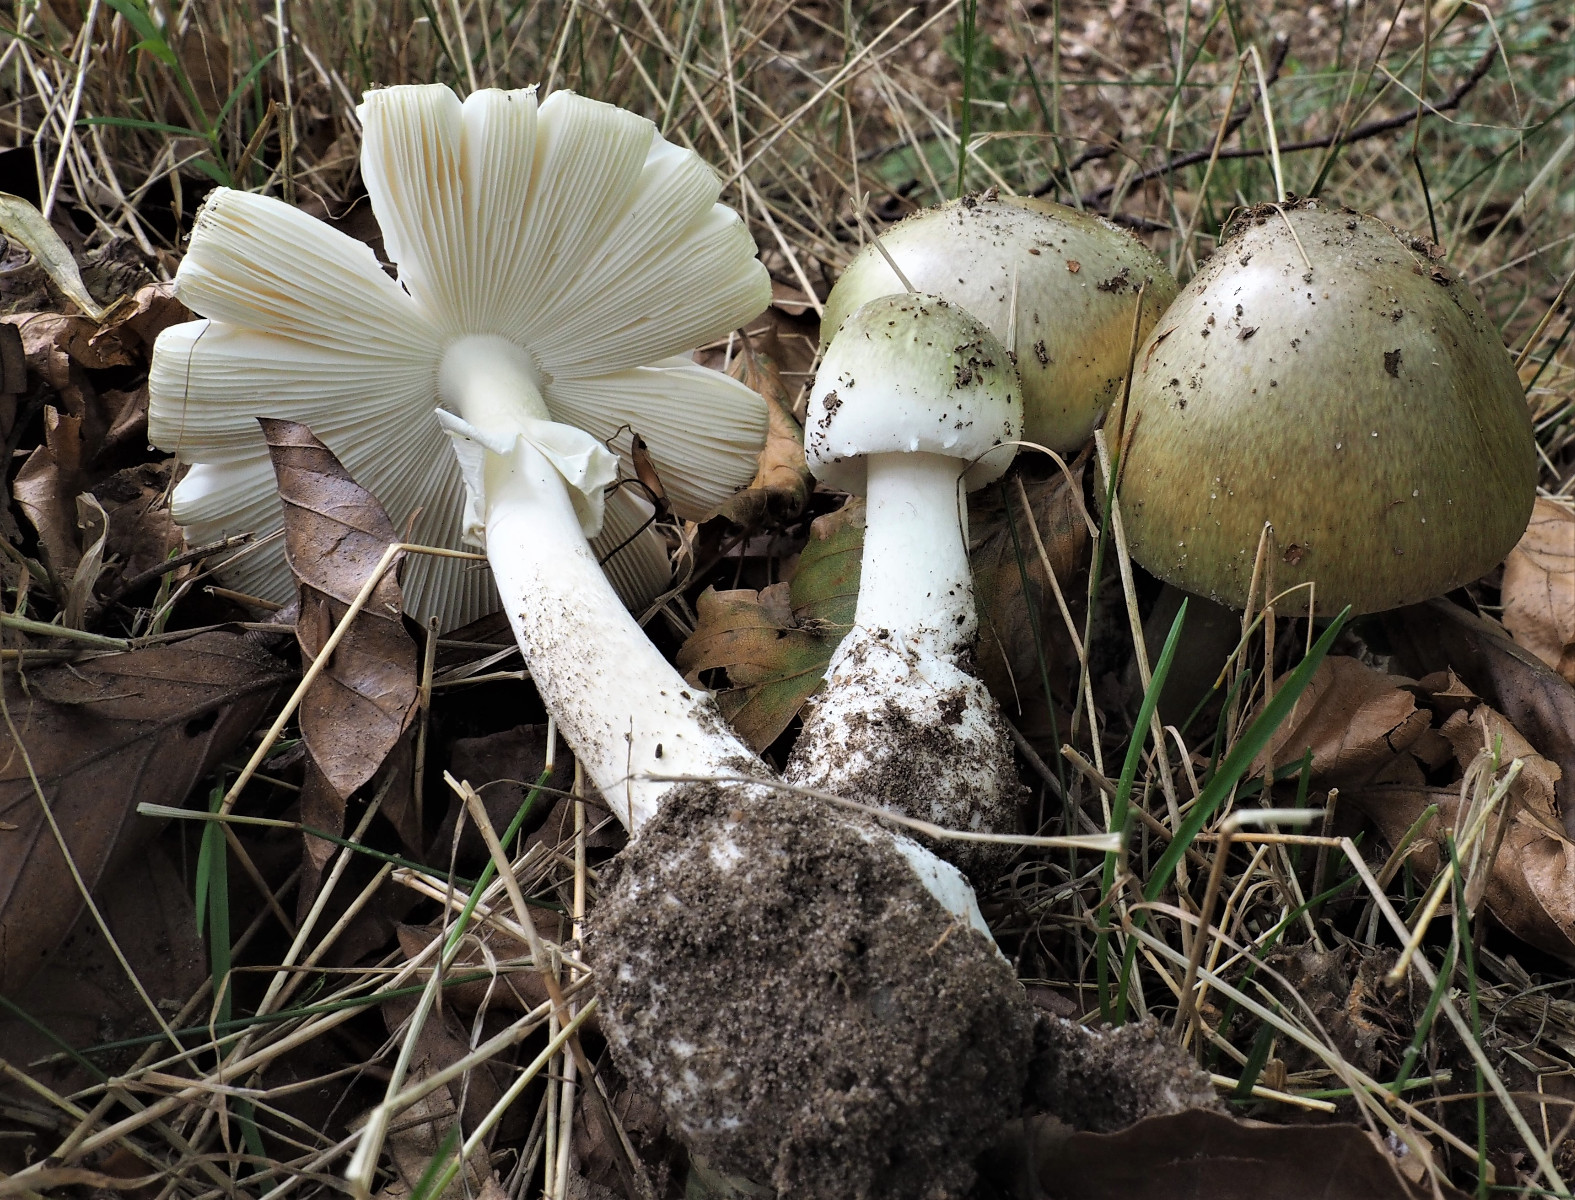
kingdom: Fungi
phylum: Basidiomycota
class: Agaricomycetes
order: Agaricales
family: Amanitaceae
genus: Amanita
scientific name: Amanita phalloides
